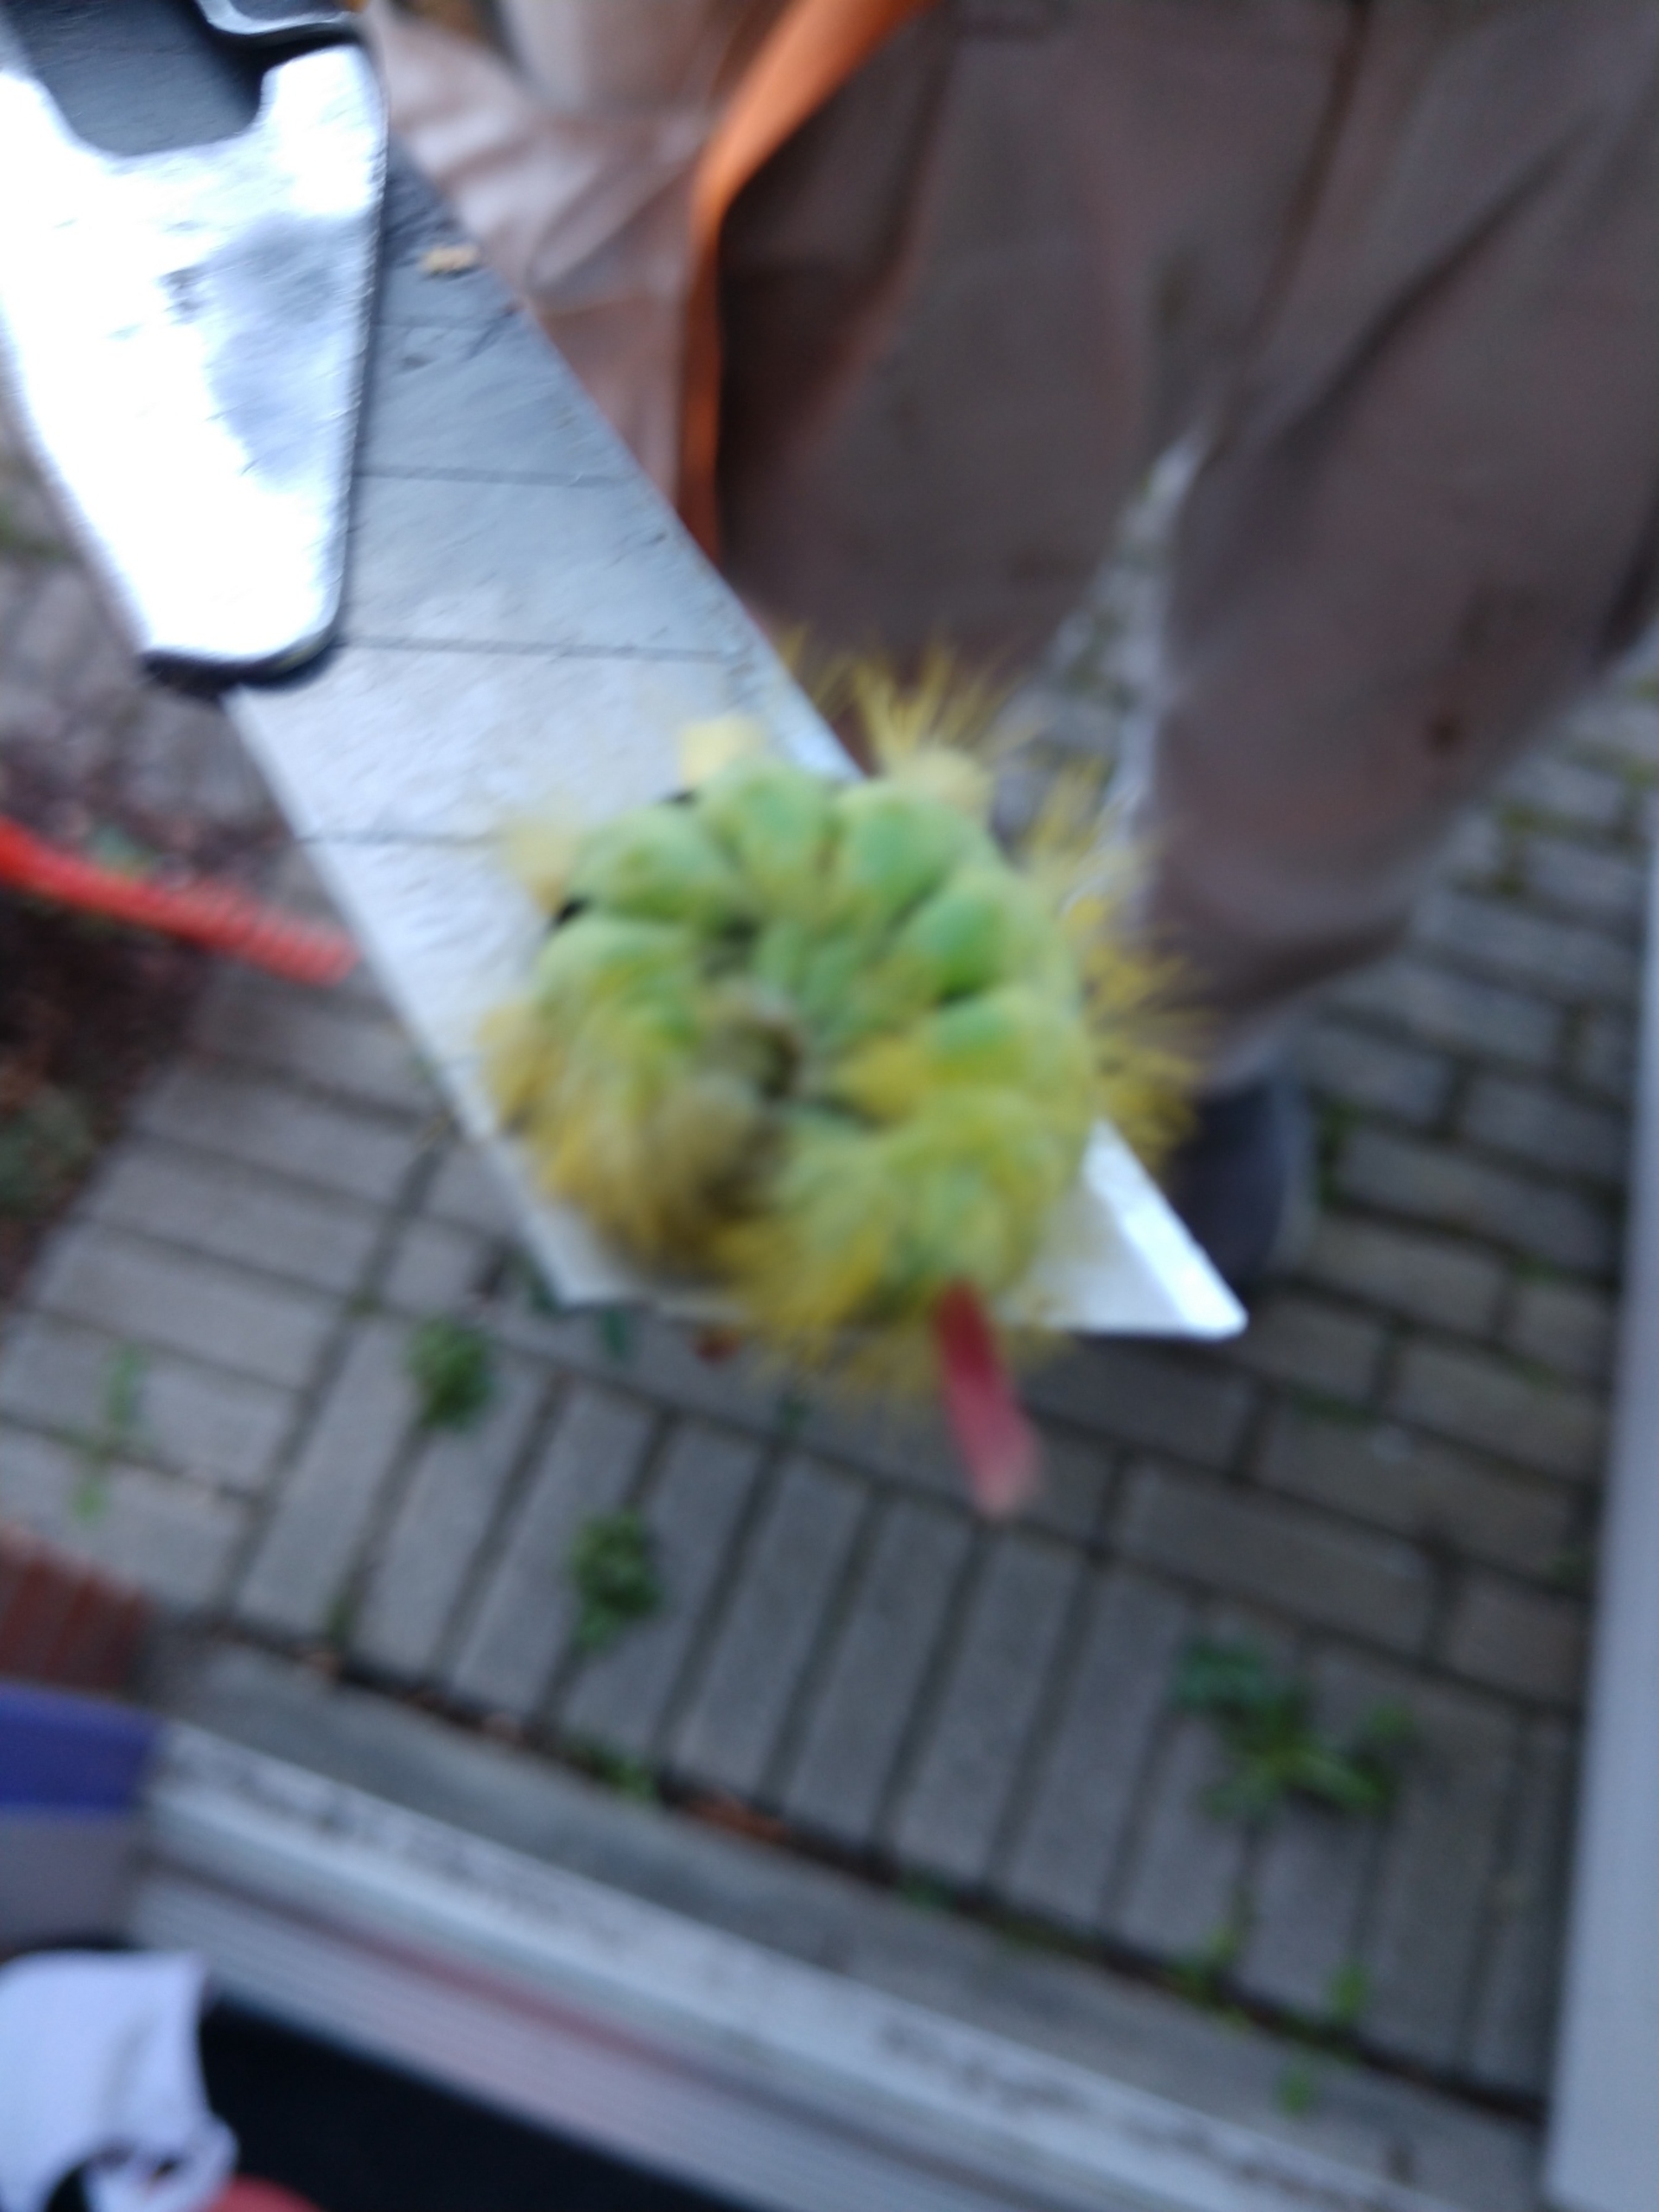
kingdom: Animalia
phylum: Arthropoda
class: Insecta
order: Lepidoptera
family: Erebidae
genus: Calliteara
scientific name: Calliteara pudibunda
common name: Bøgenonne
